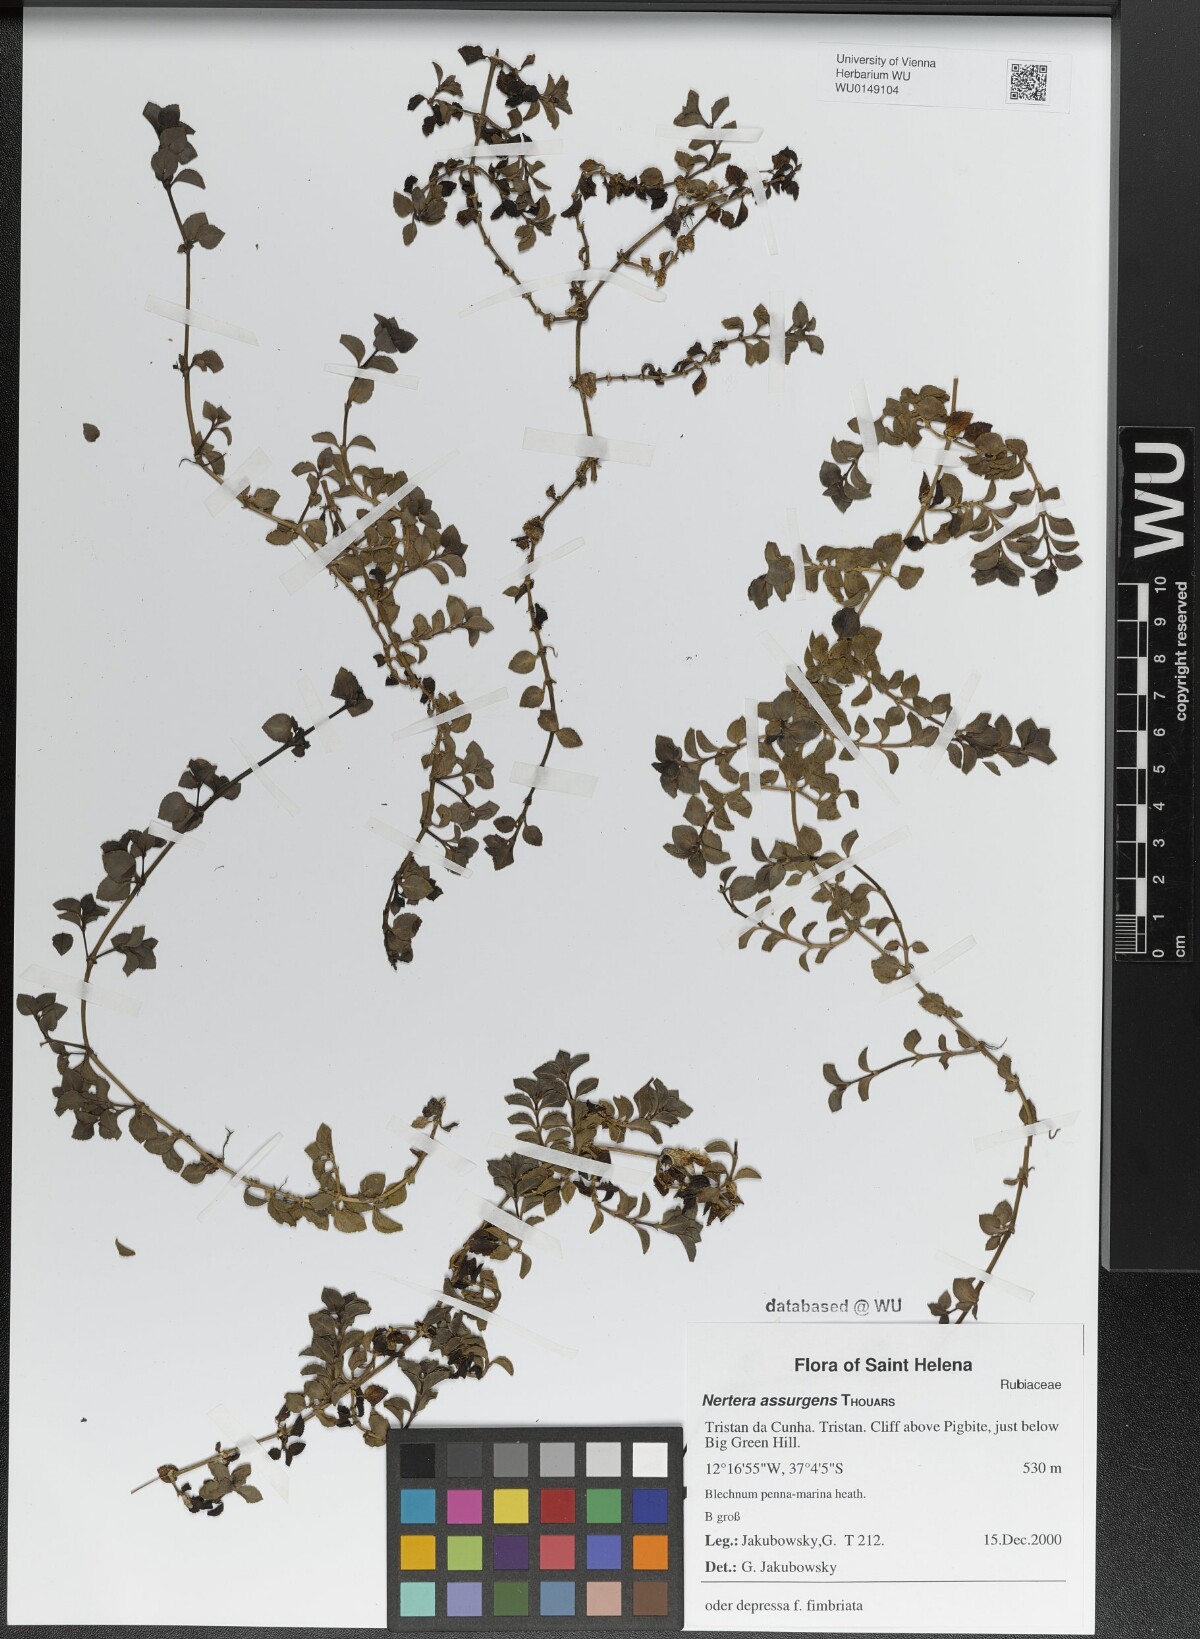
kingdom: Plantae
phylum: Tracheophyta
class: Magnoliopsida
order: Gentianales
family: Rubiaceae
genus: Nertera
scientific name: Nertera granadensis
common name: Beadplant
